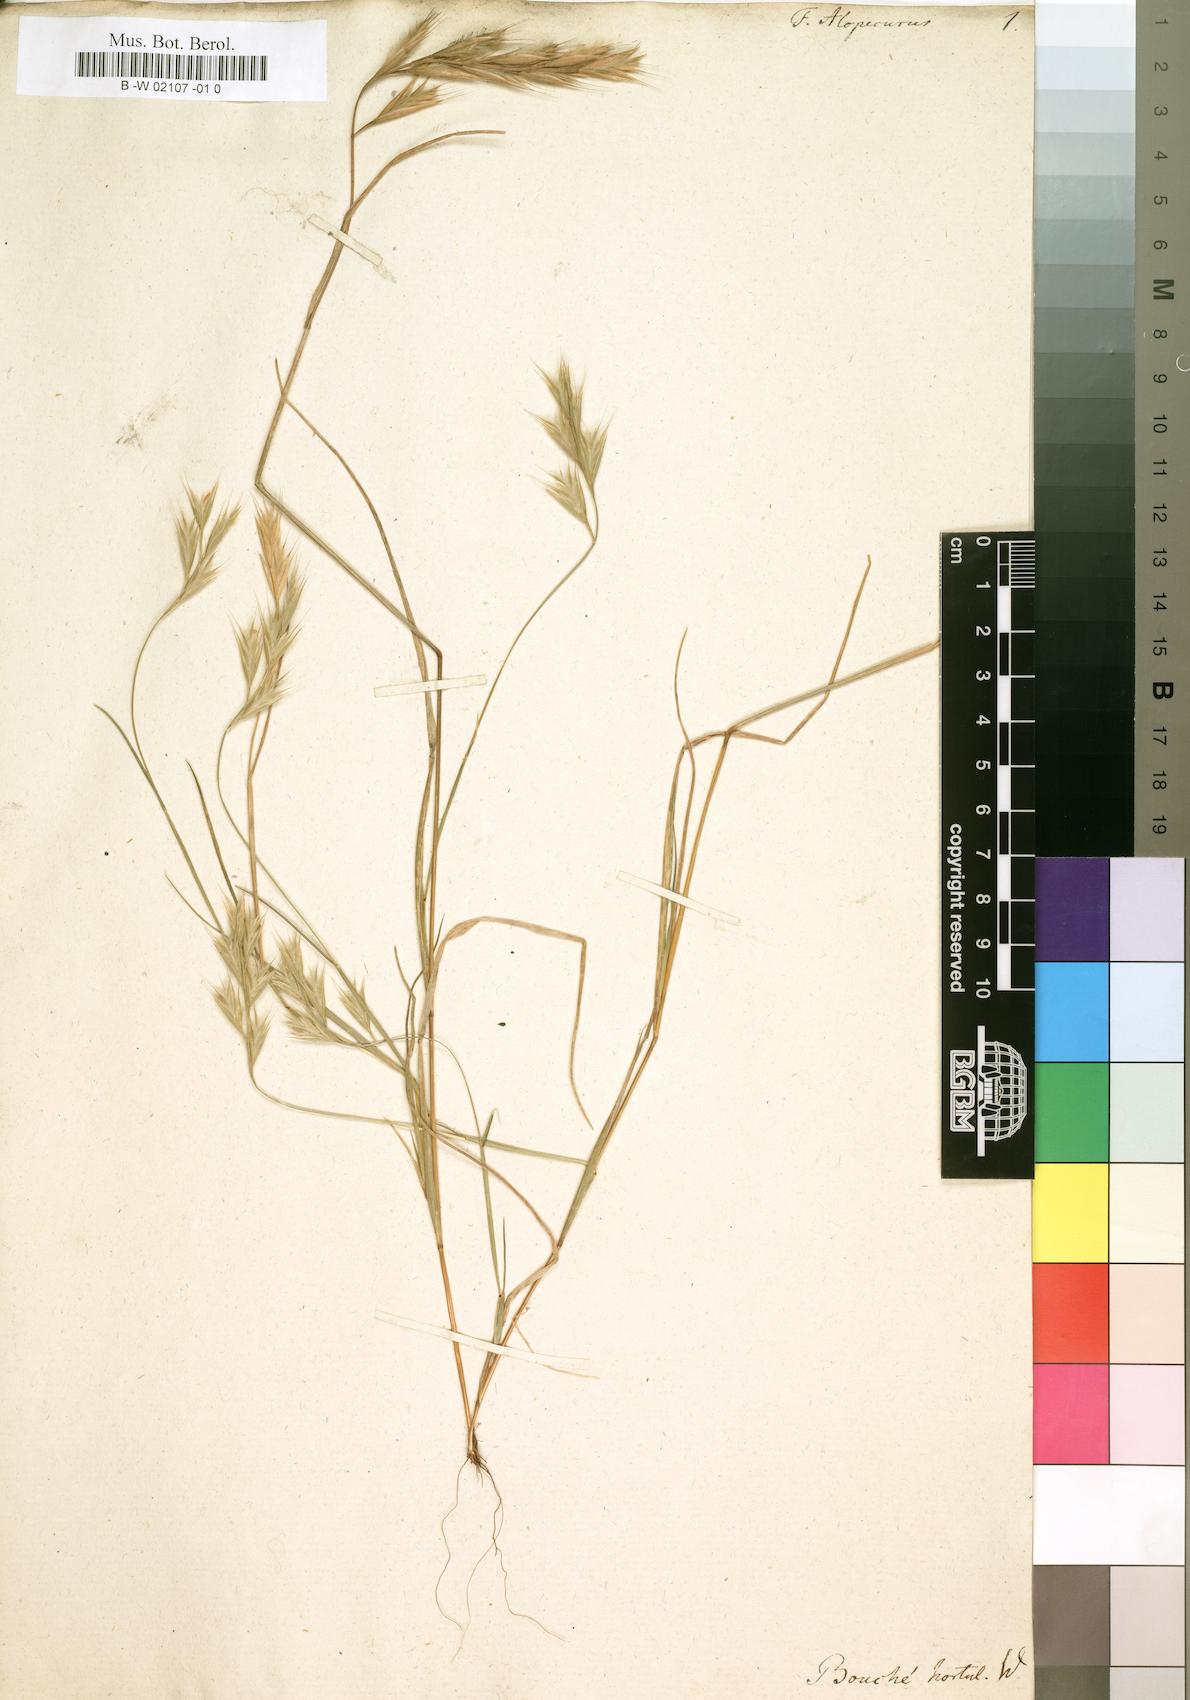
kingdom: Plantae
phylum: Tracheophyta
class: Liliopsida
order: Poales
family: Poaceae
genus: Poa
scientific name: Poa alopecurus
